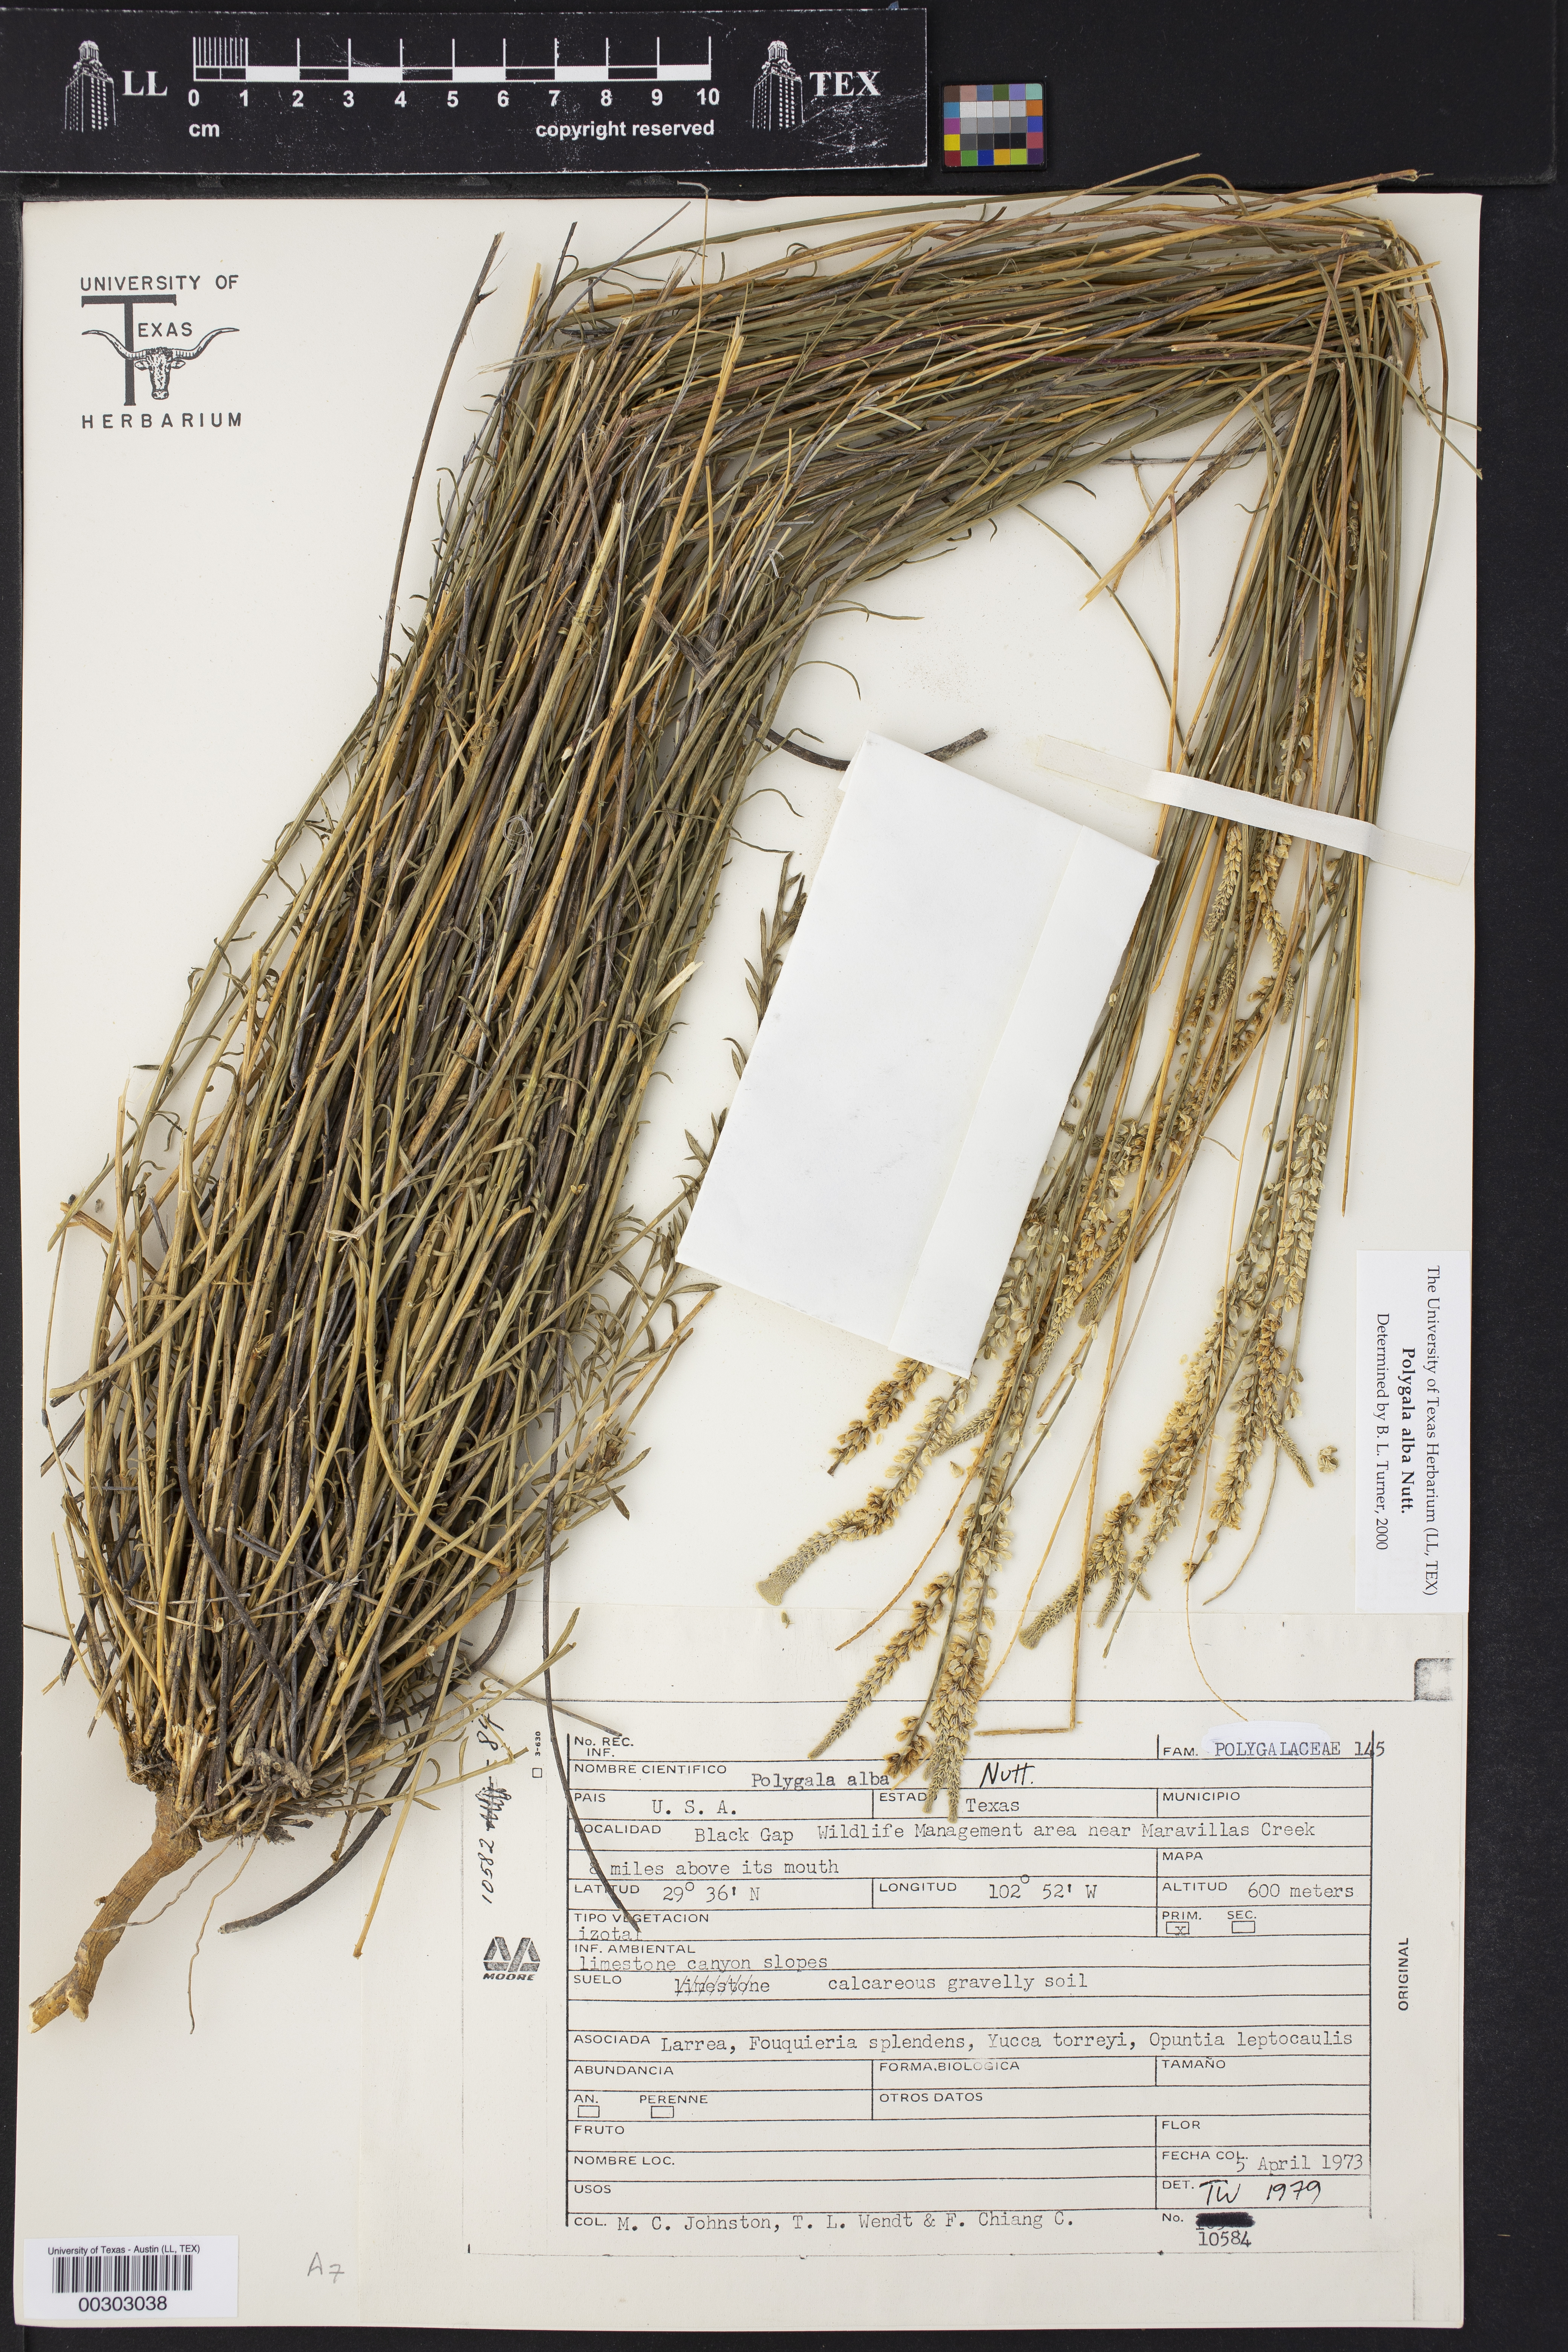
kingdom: Plantae
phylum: Tracheophyta
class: Magnoliopsida
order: Fabales
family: Polygalaceae
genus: Polygala
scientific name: Polygala alba
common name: White milkwort
